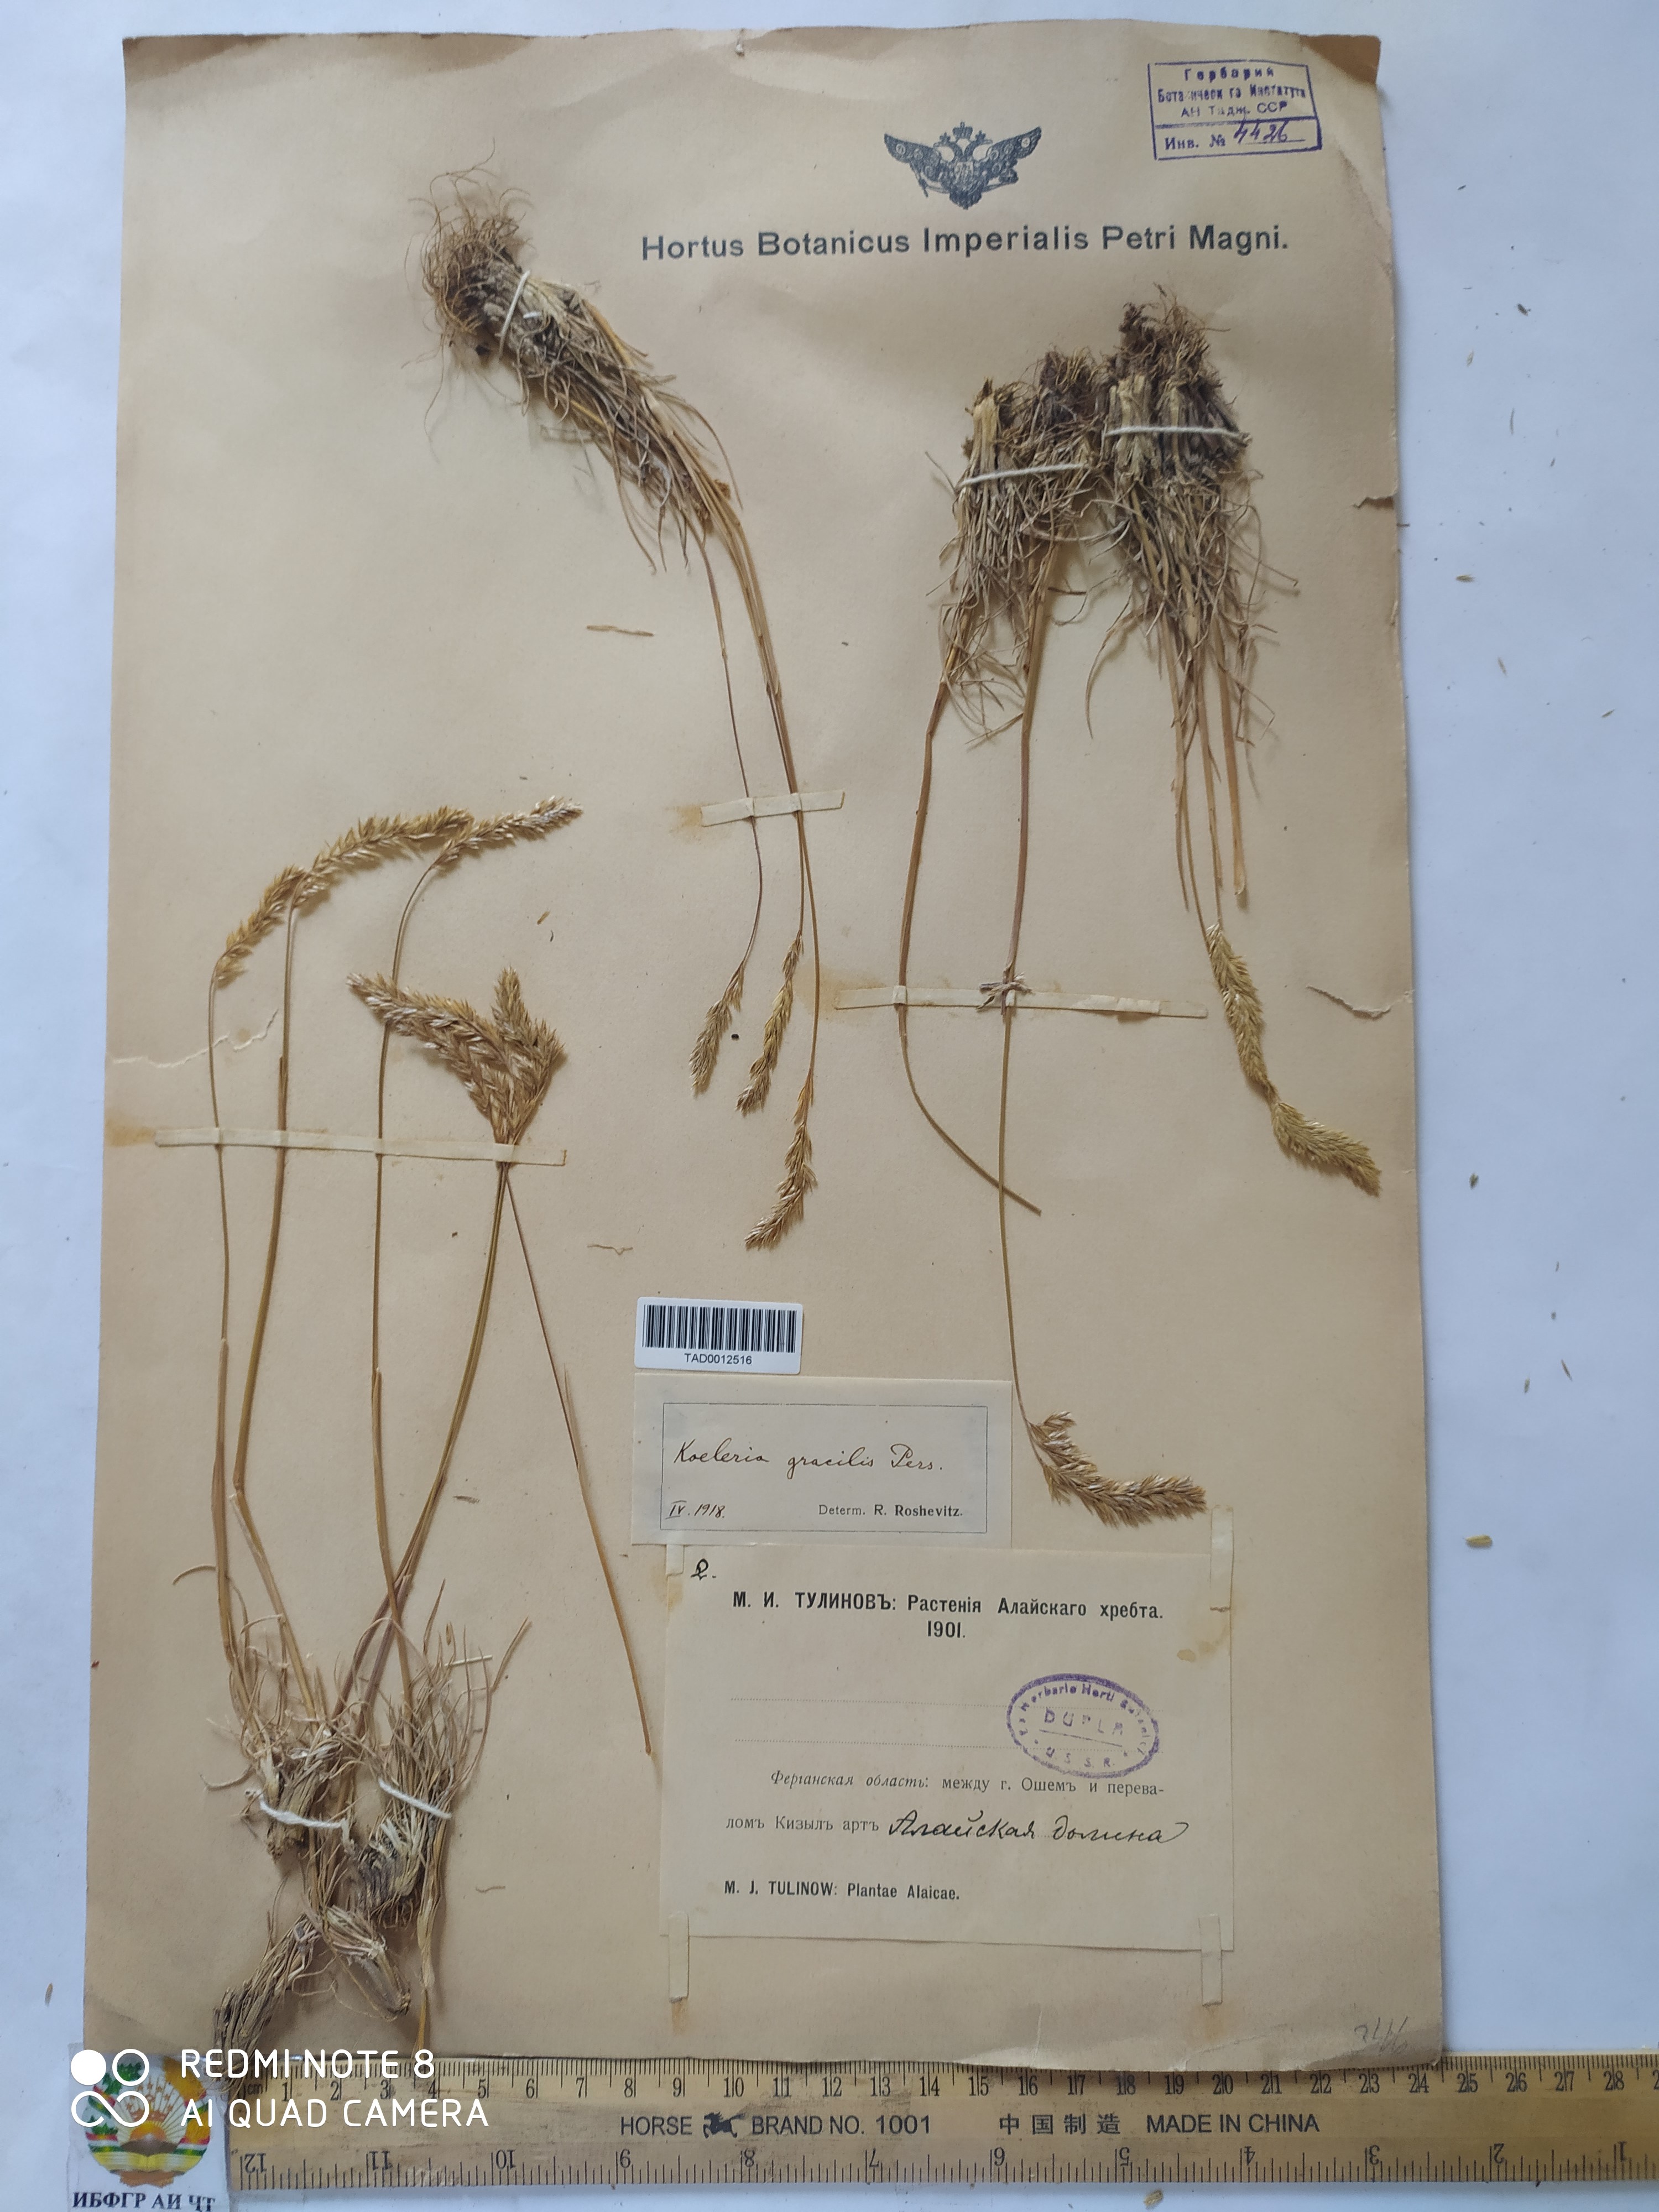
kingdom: Plantae
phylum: Tracheophyta
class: Liliopsida
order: Poales
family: Poaceae
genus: Koeleria
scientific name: Koeleria macrantha
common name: Crested hair-grass
